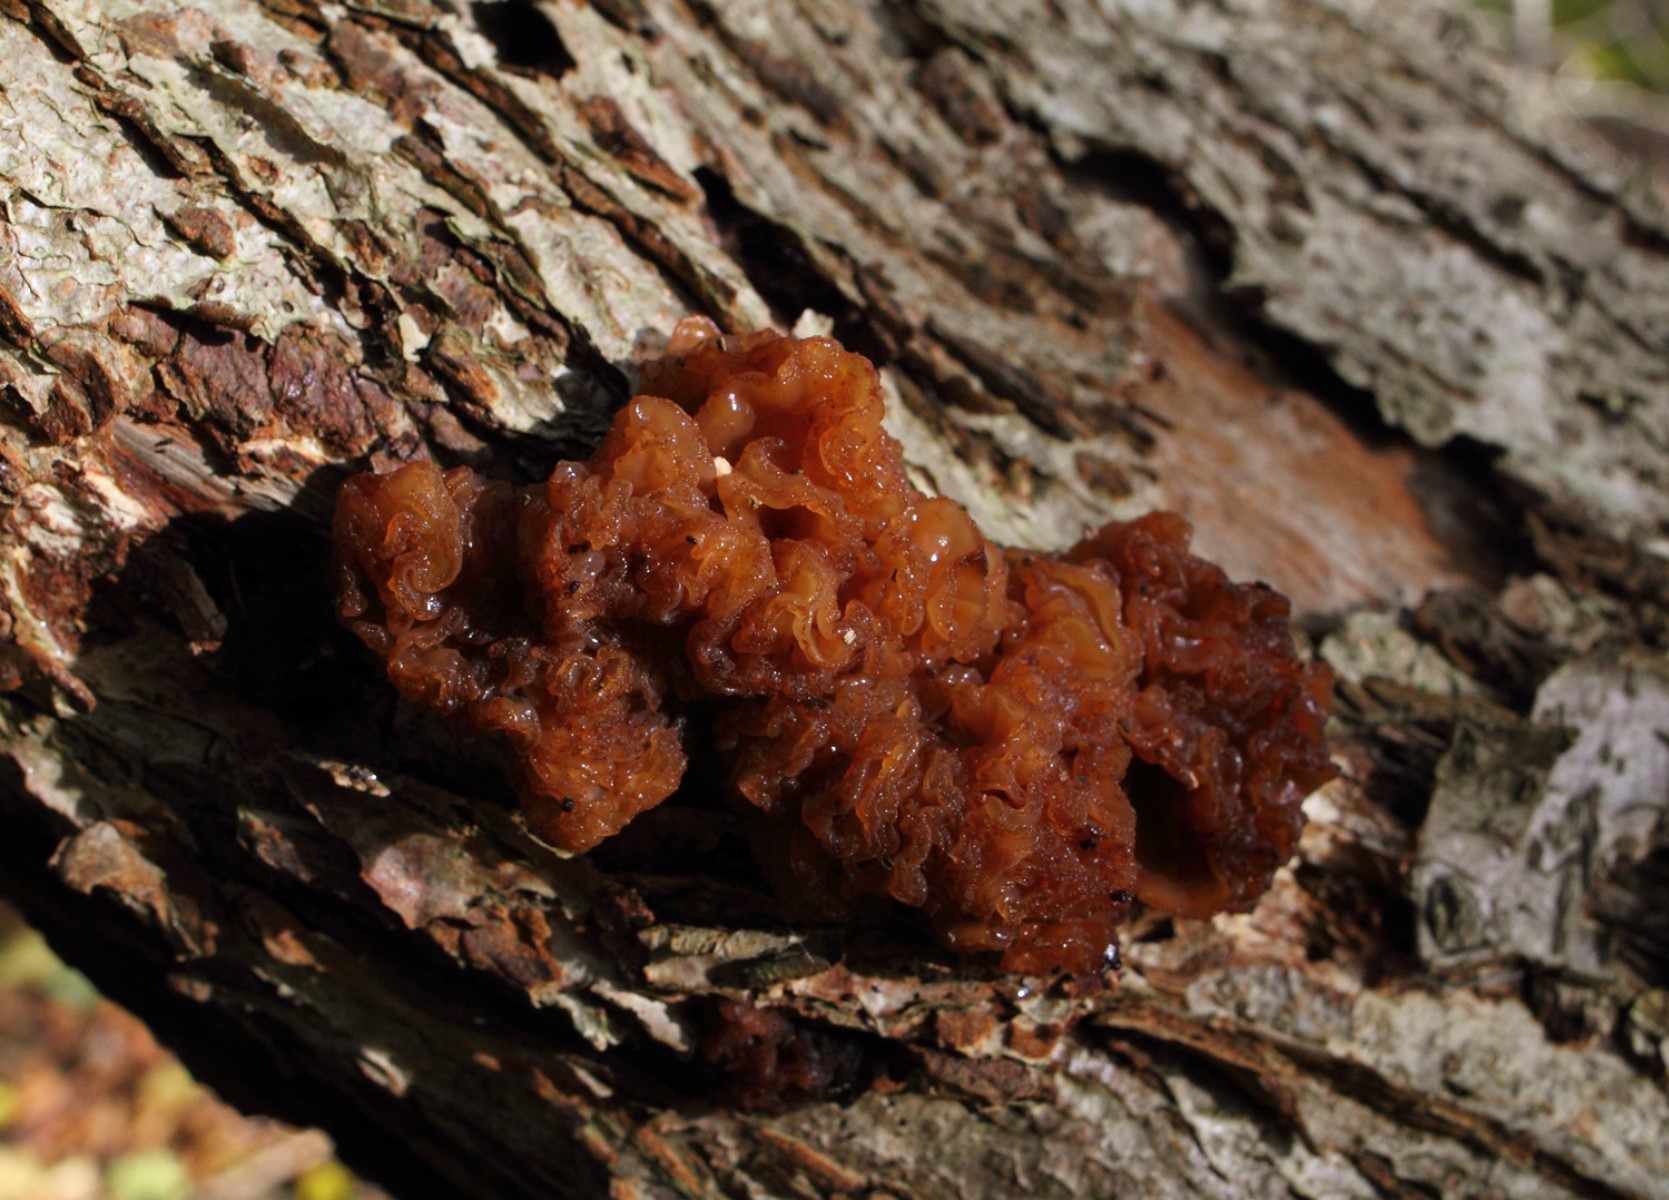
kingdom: Fungi
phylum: Basidiomycota
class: Tremellomycetes
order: Tremellales
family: Tremellaceae
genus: Phaeotremella
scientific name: Phaeotremella frondosa
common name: kæmpe-bævresvamp
